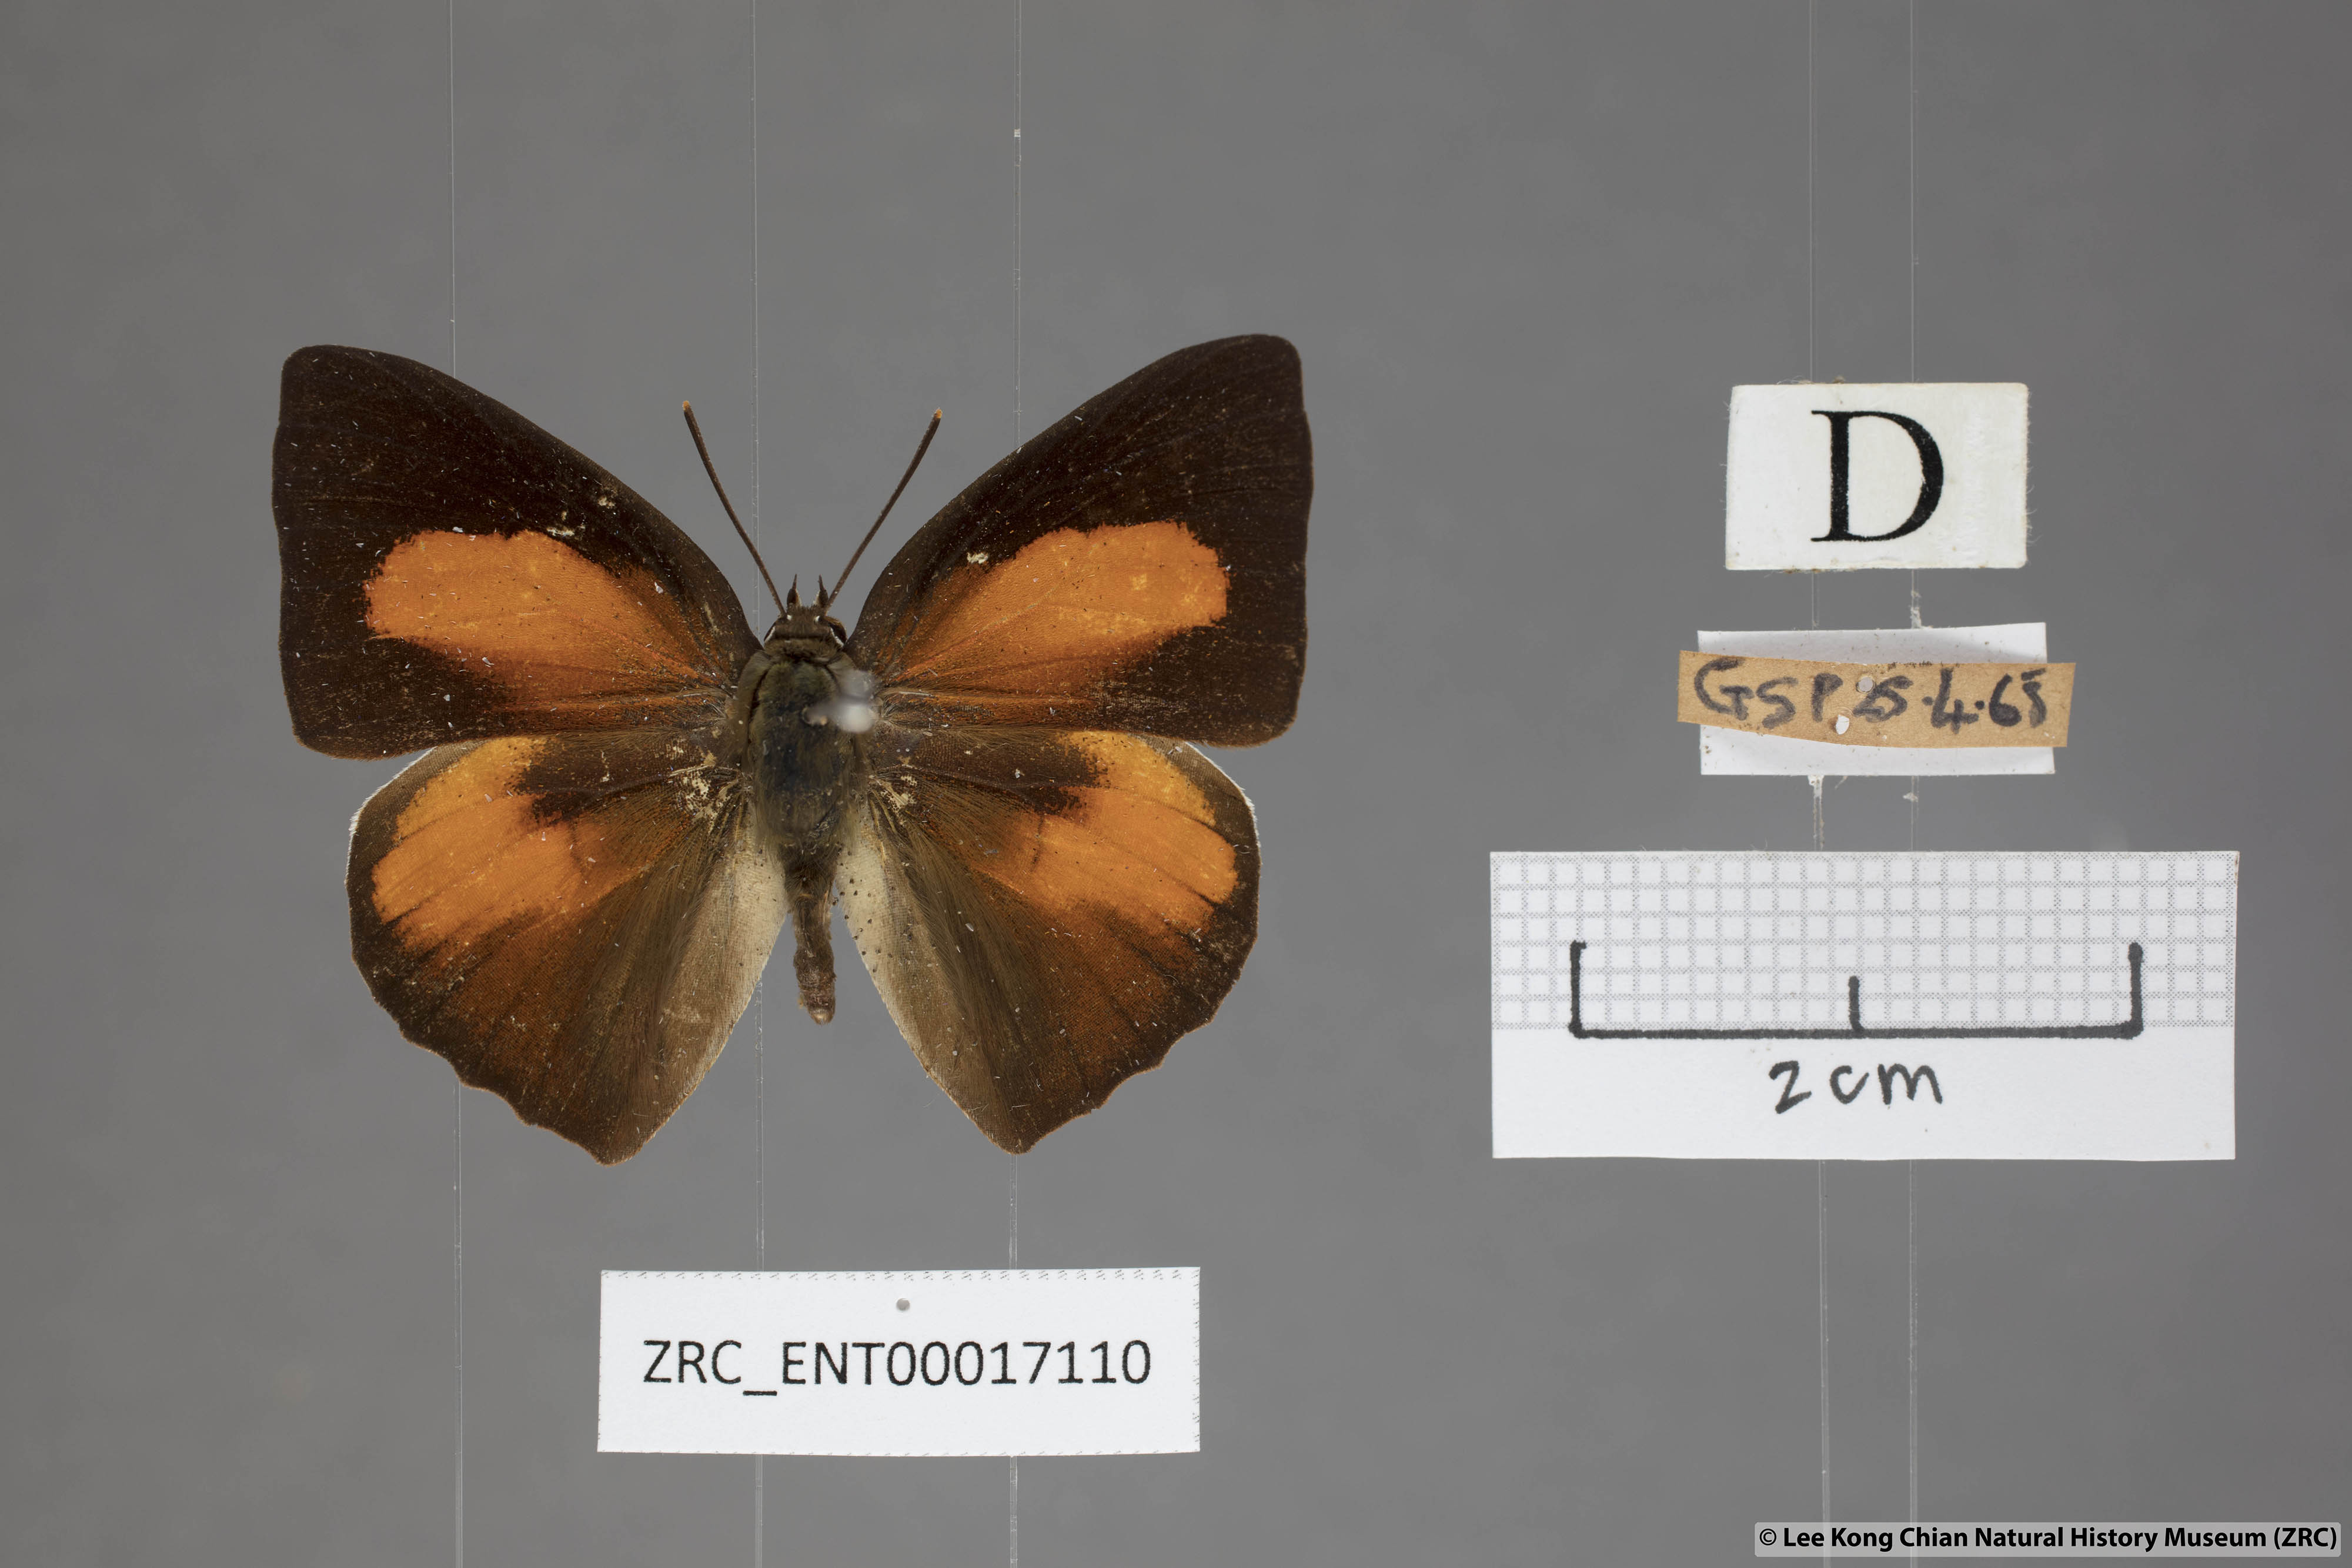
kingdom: Animalia
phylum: Arthropoda
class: Insecta
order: Lepidoptera
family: Lycaenidae
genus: Curetis
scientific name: Curetis bulis
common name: Bright sunbeam
